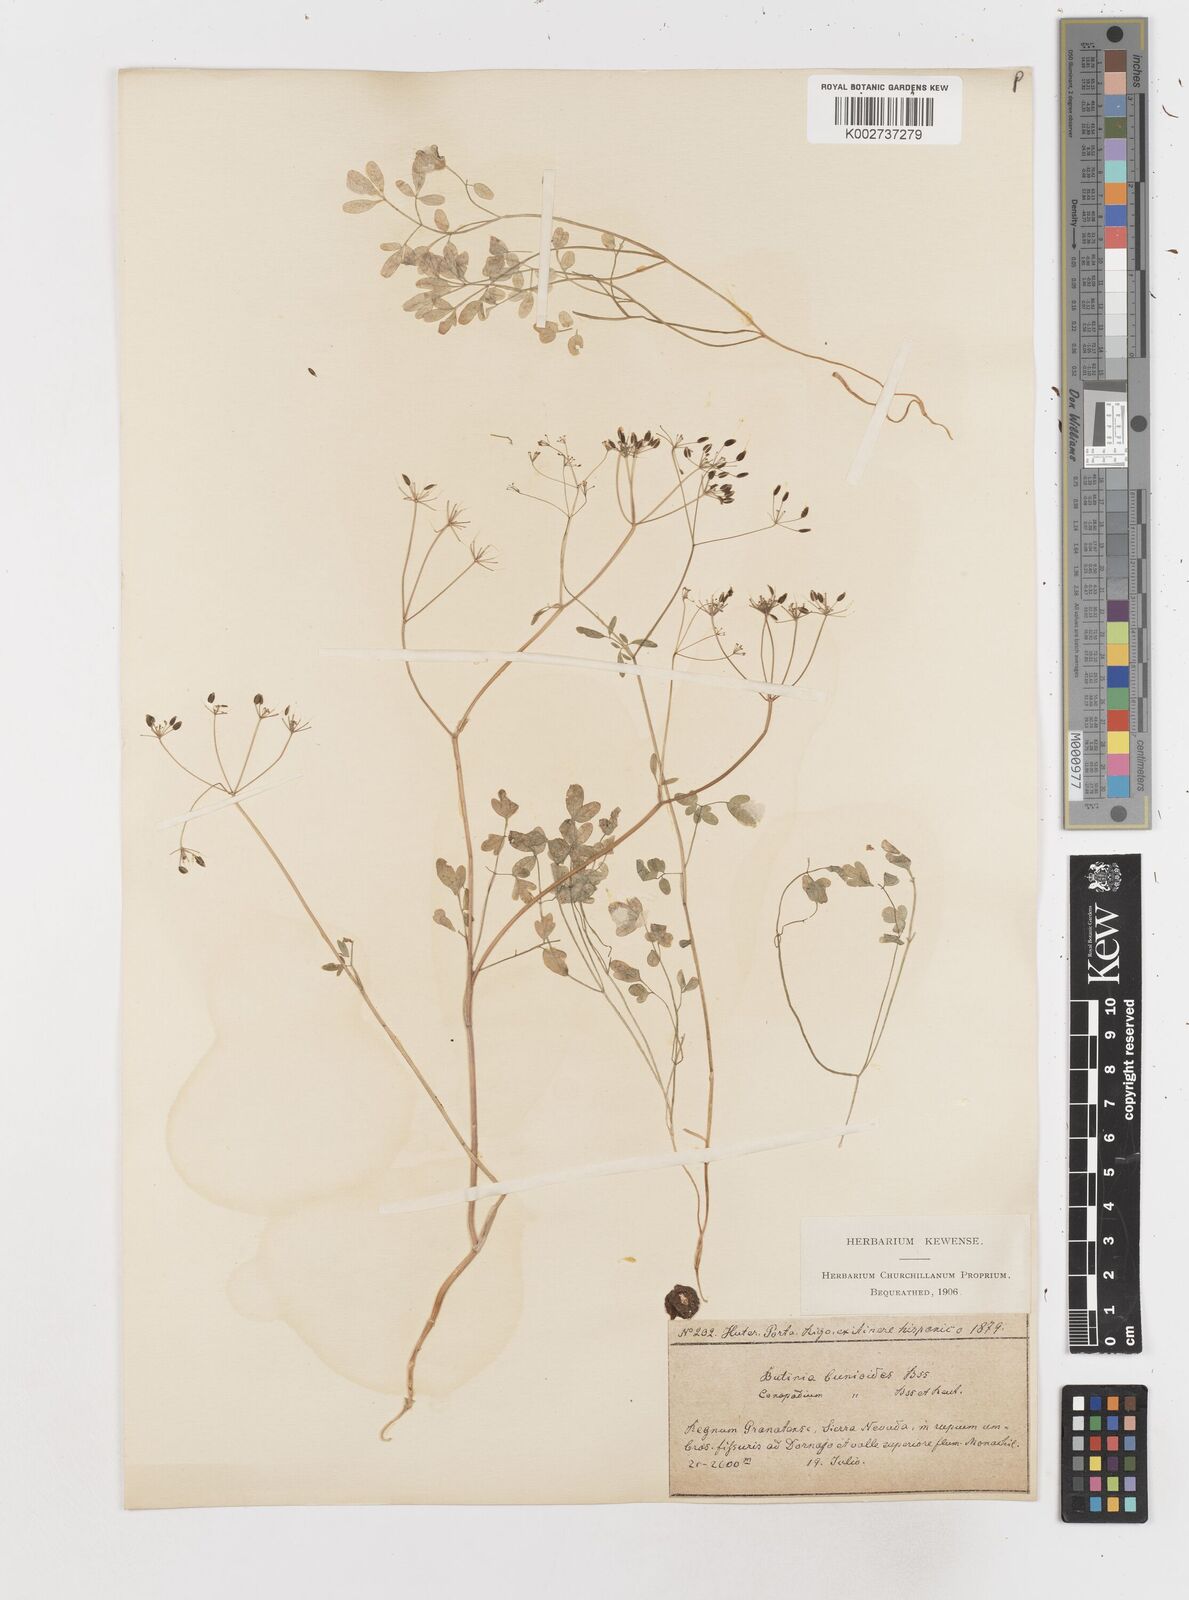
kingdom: Plantae
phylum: Tracheophyta
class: Magnoliopsida
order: Apiales
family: Apiaceae
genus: Conopodium
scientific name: Conopodium bunioides
